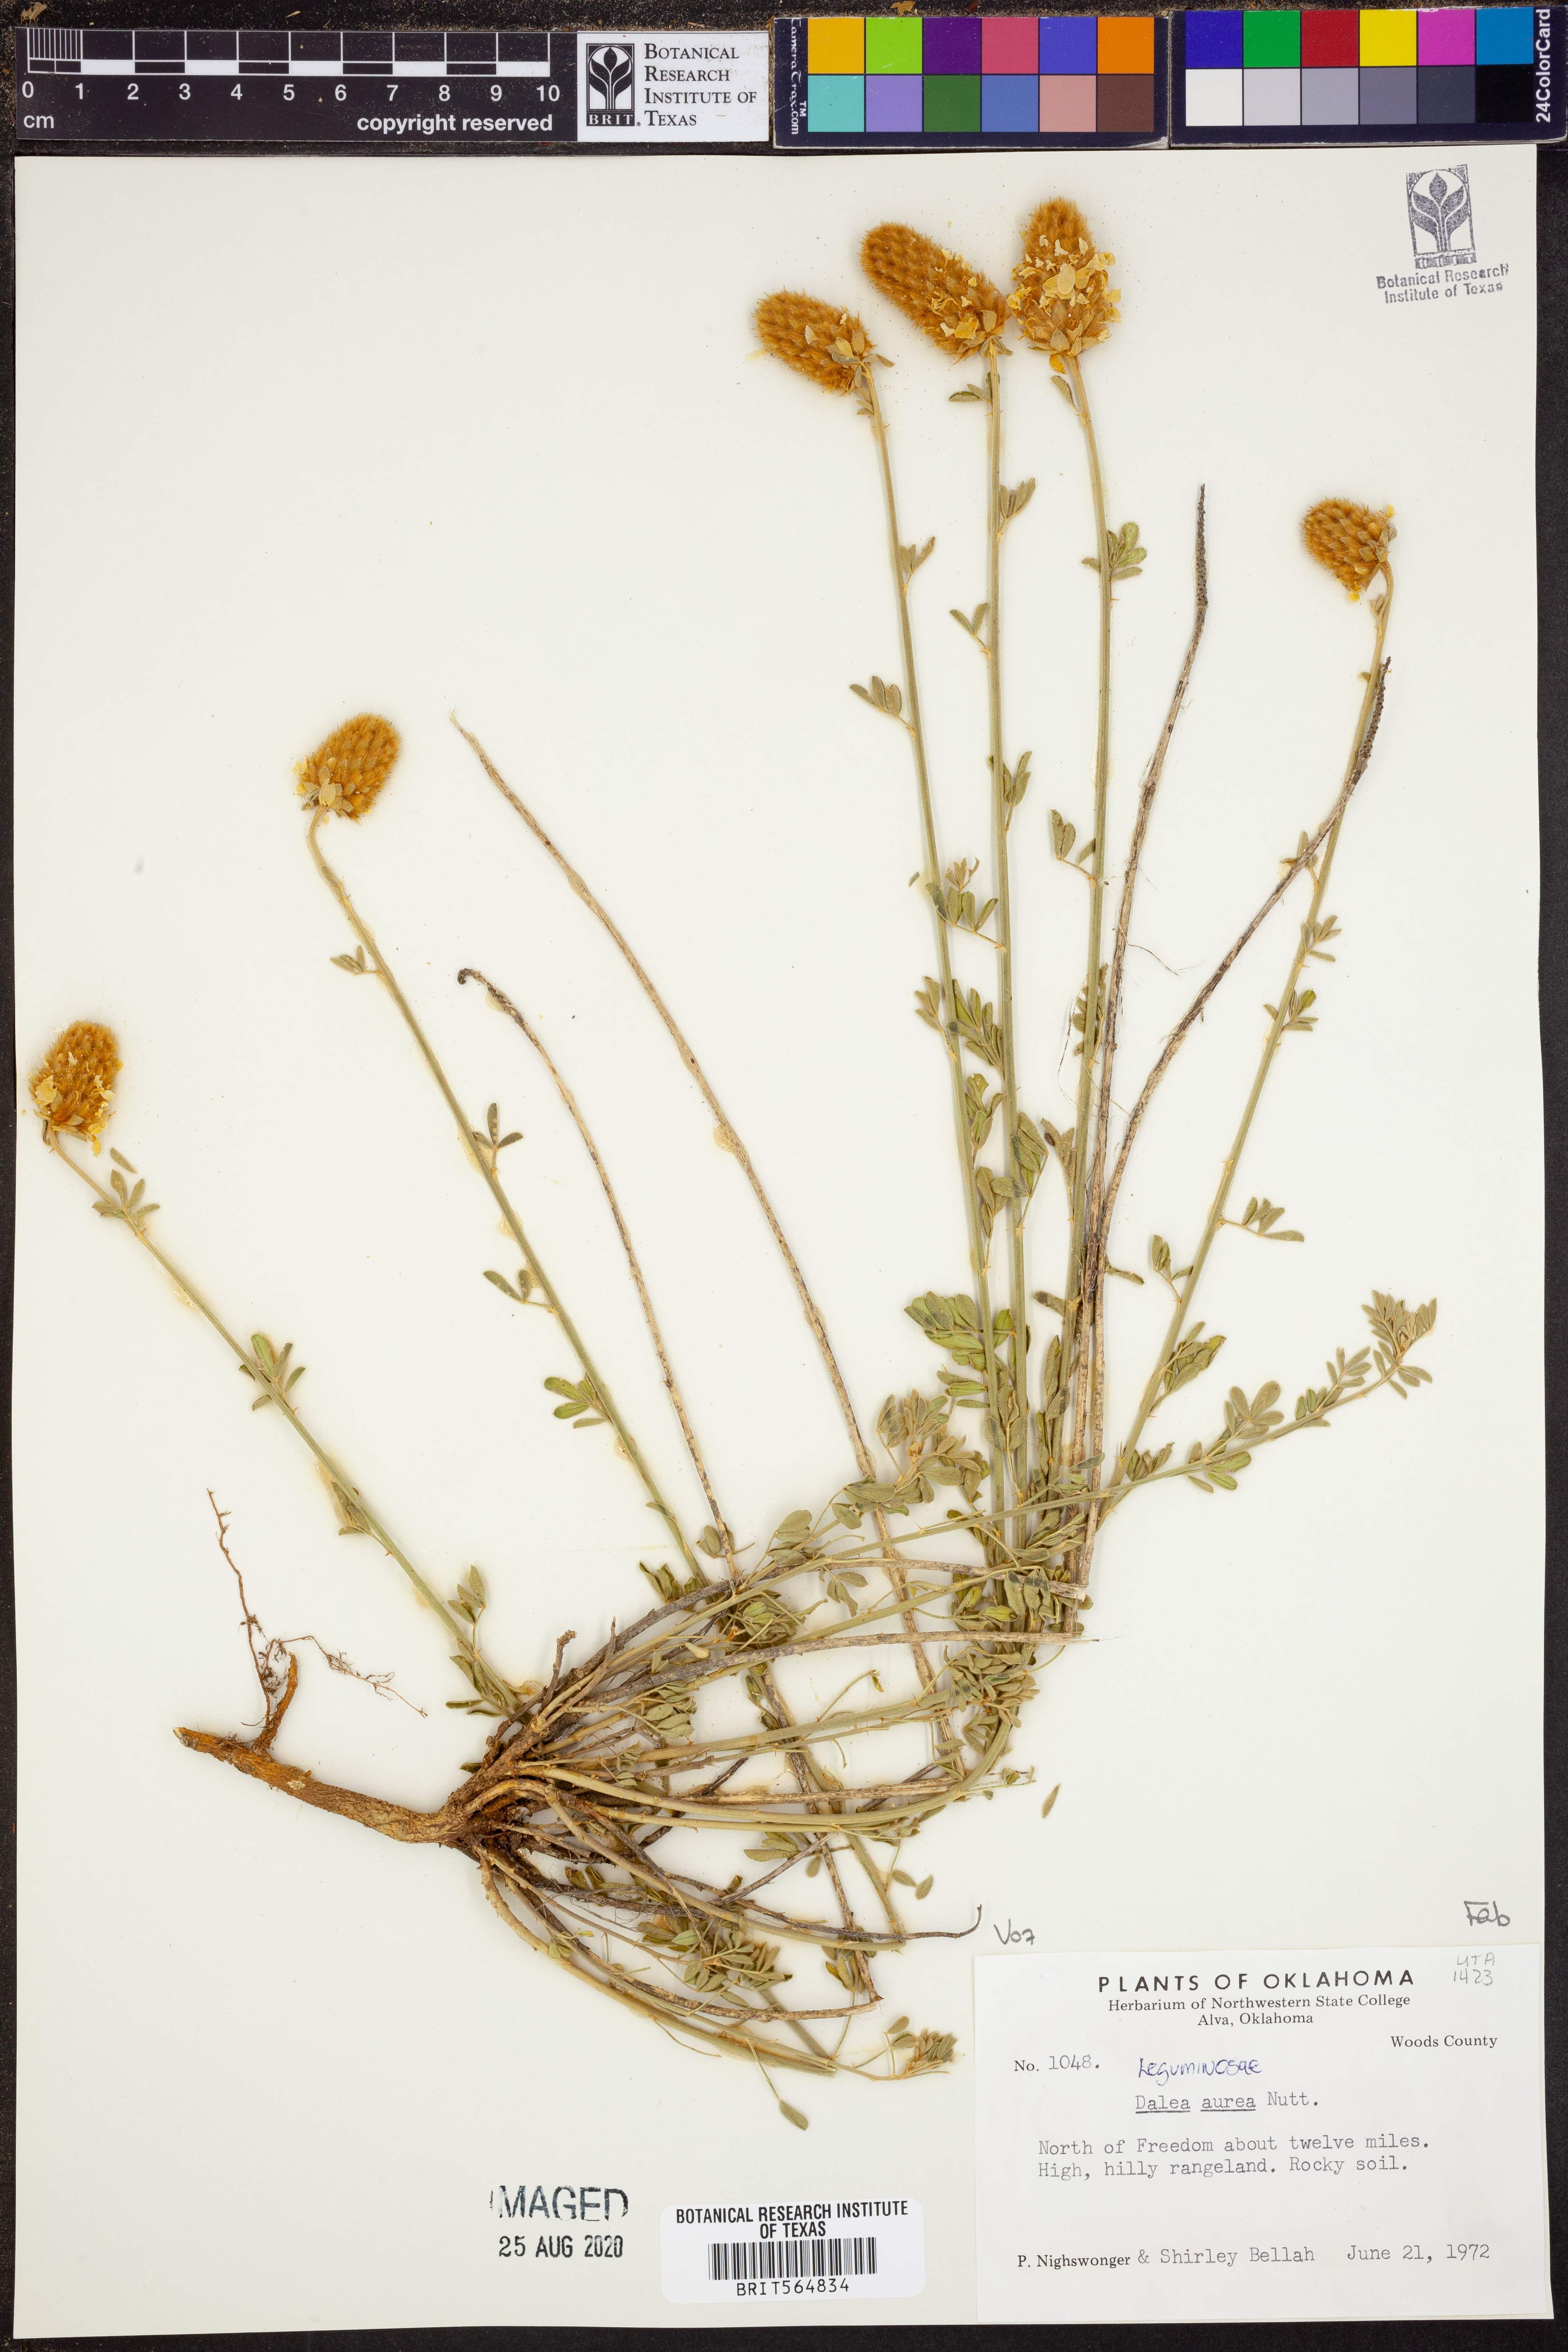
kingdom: Plantae
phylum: Tracheophyta
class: Magnoliopsida
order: Fabales
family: Fabaceae
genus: Dalea
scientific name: Dalea aurea
